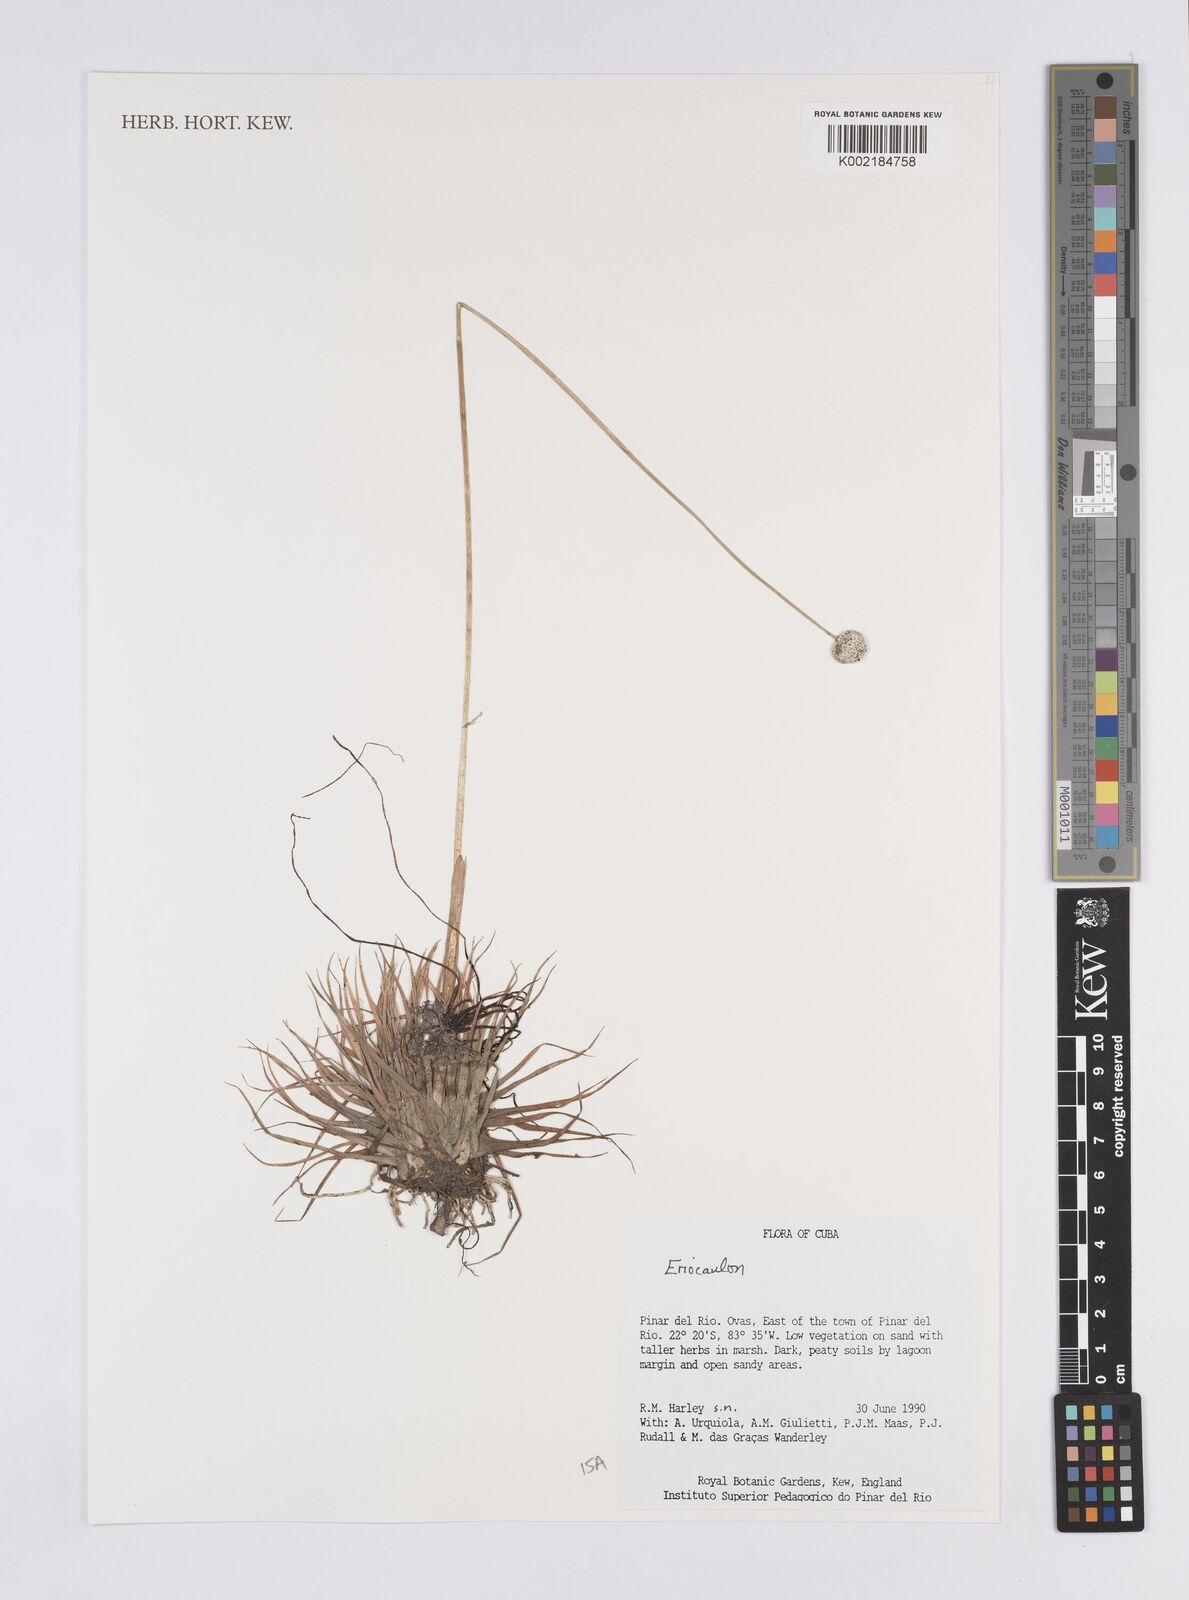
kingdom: Plantae
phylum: Tracheophyta
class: Liliopsida
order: Poales
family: Eriocaulaceae
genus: Eriocaulon
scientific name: Eriocaulon
